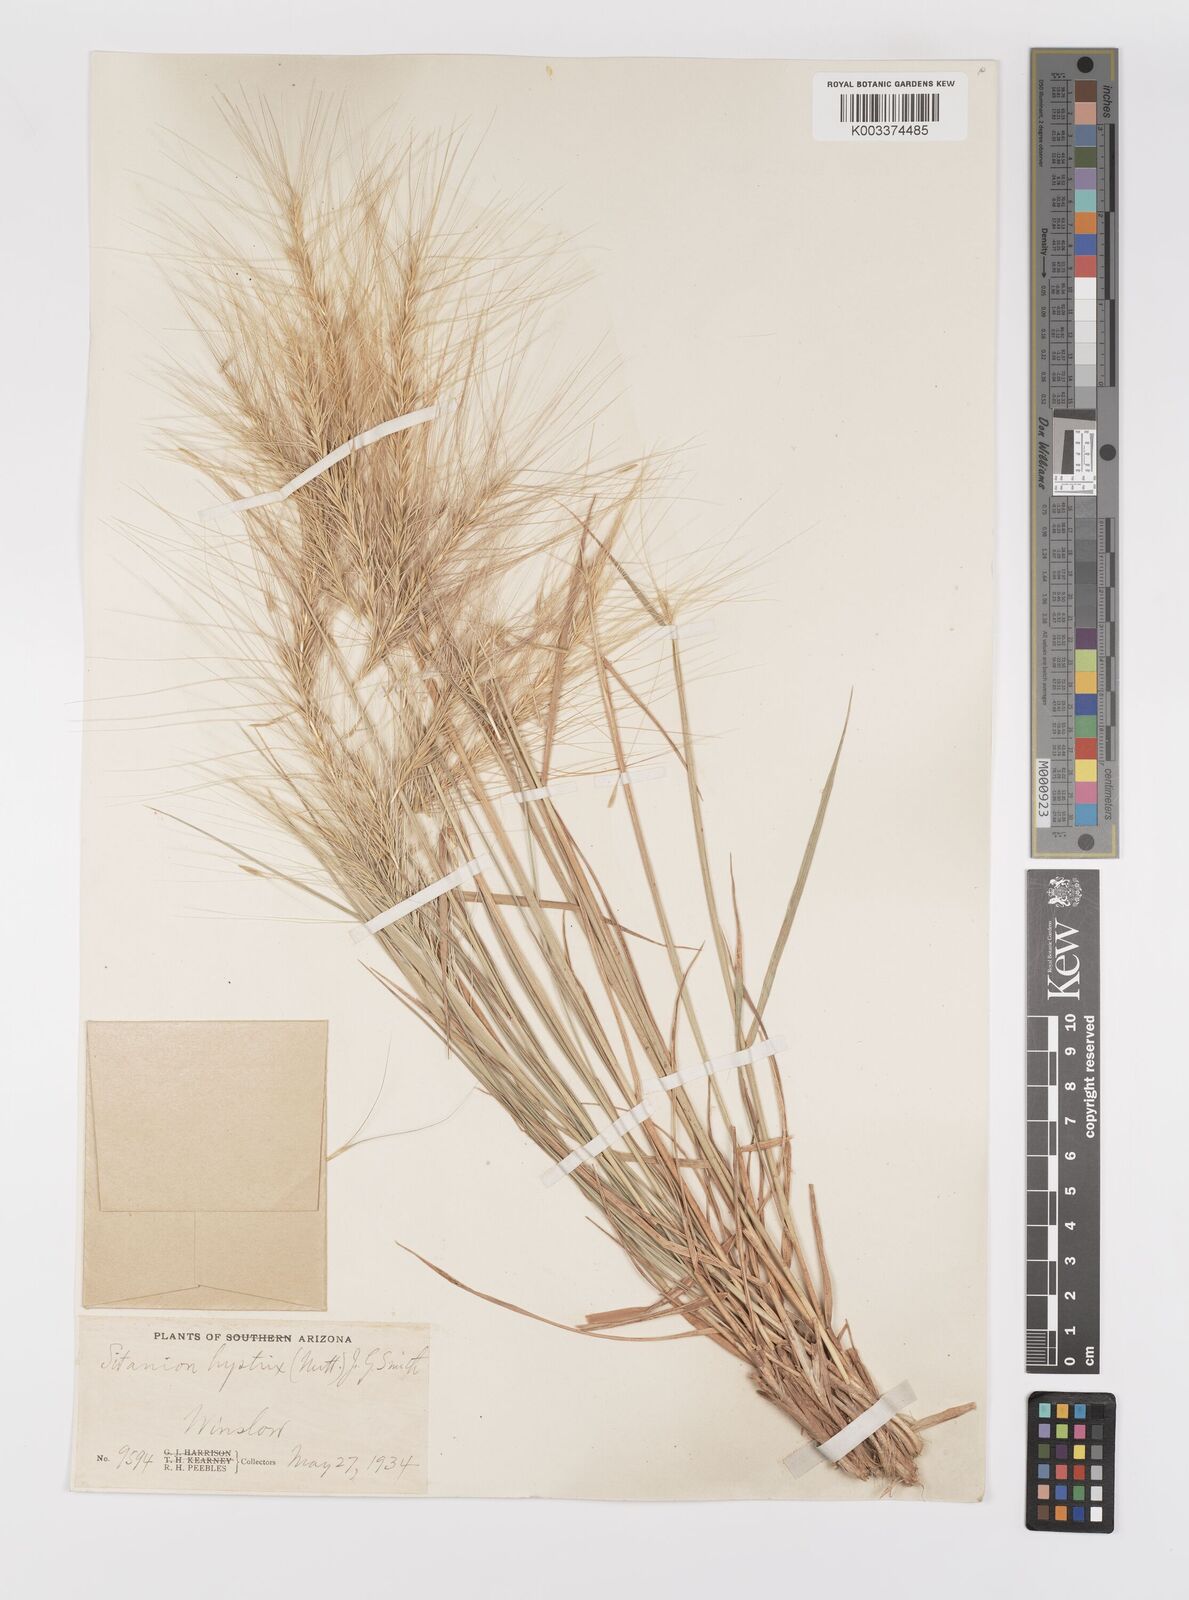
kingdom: Plantae
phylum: Tracheophyta
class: Liliopsida
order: Poales
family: Poaceae
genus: Elymus
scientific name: Elymus elymoides
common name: Bottlebrush squirreltail
